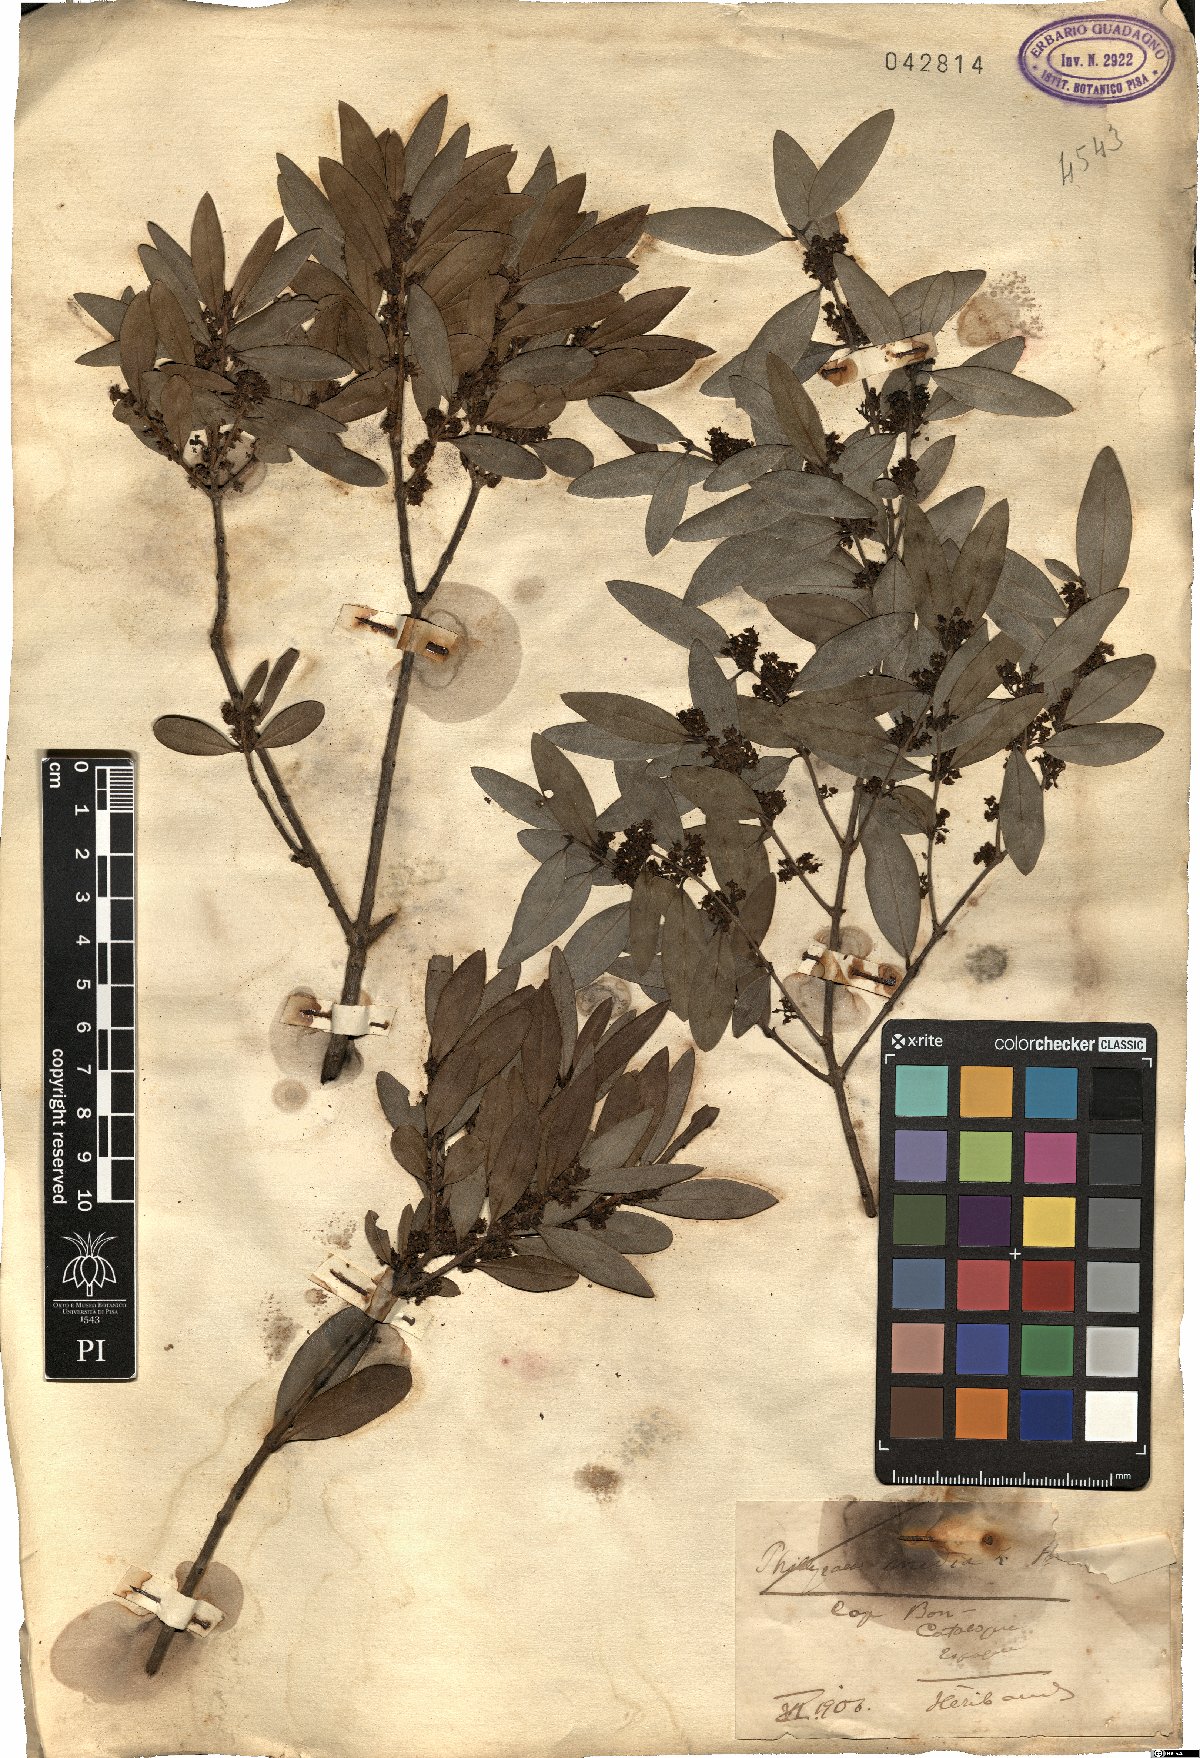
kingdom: Plantae
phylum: Tracheophyta
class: Magnoliopsida
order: Lamiales
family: Oleaceae
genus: Phillyrea
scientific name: Phillyrea latifolia
